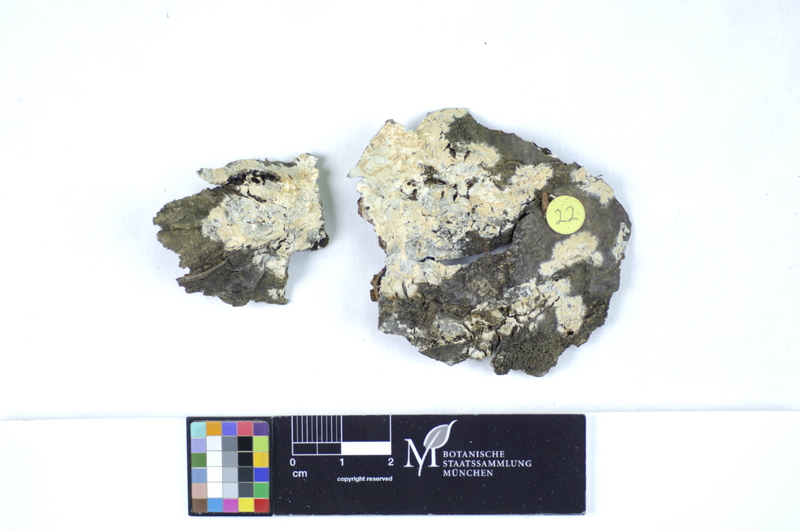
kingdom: Plantae
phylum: Tracheophyta
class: Magnoliopsida
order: Fagales
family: Fagaceae
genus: Quercus
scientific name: Quercus
